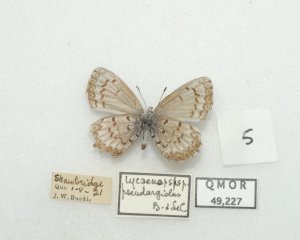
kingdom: Animalia
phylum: Arthropoda
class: Insecta
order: Lepidoptera
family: Lycaenidae
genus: Celastrina
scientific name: Celastrina lucia
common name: Northern Spring Azure
